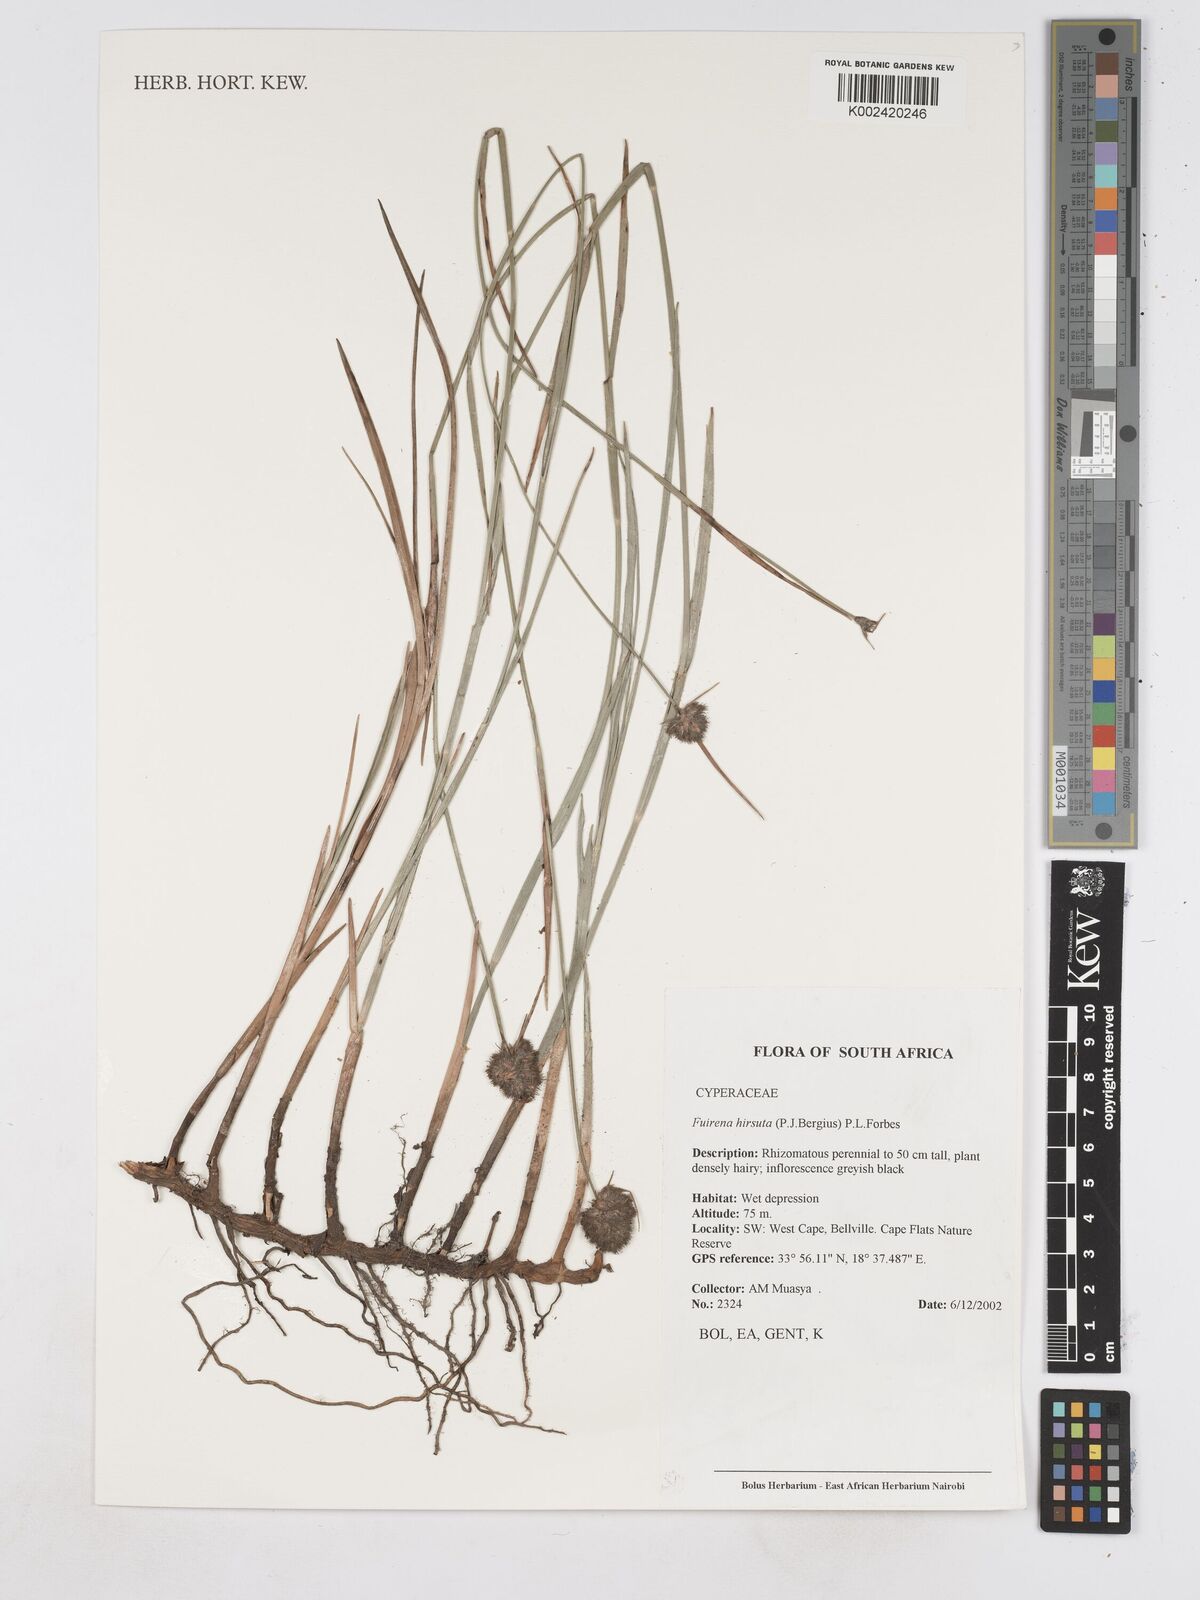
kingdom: Plantae
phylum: Tracheophyta
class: Liliopsida
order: Poales
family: Cyperaceae
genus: Fuirena
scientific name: Fuirena hirsuta
